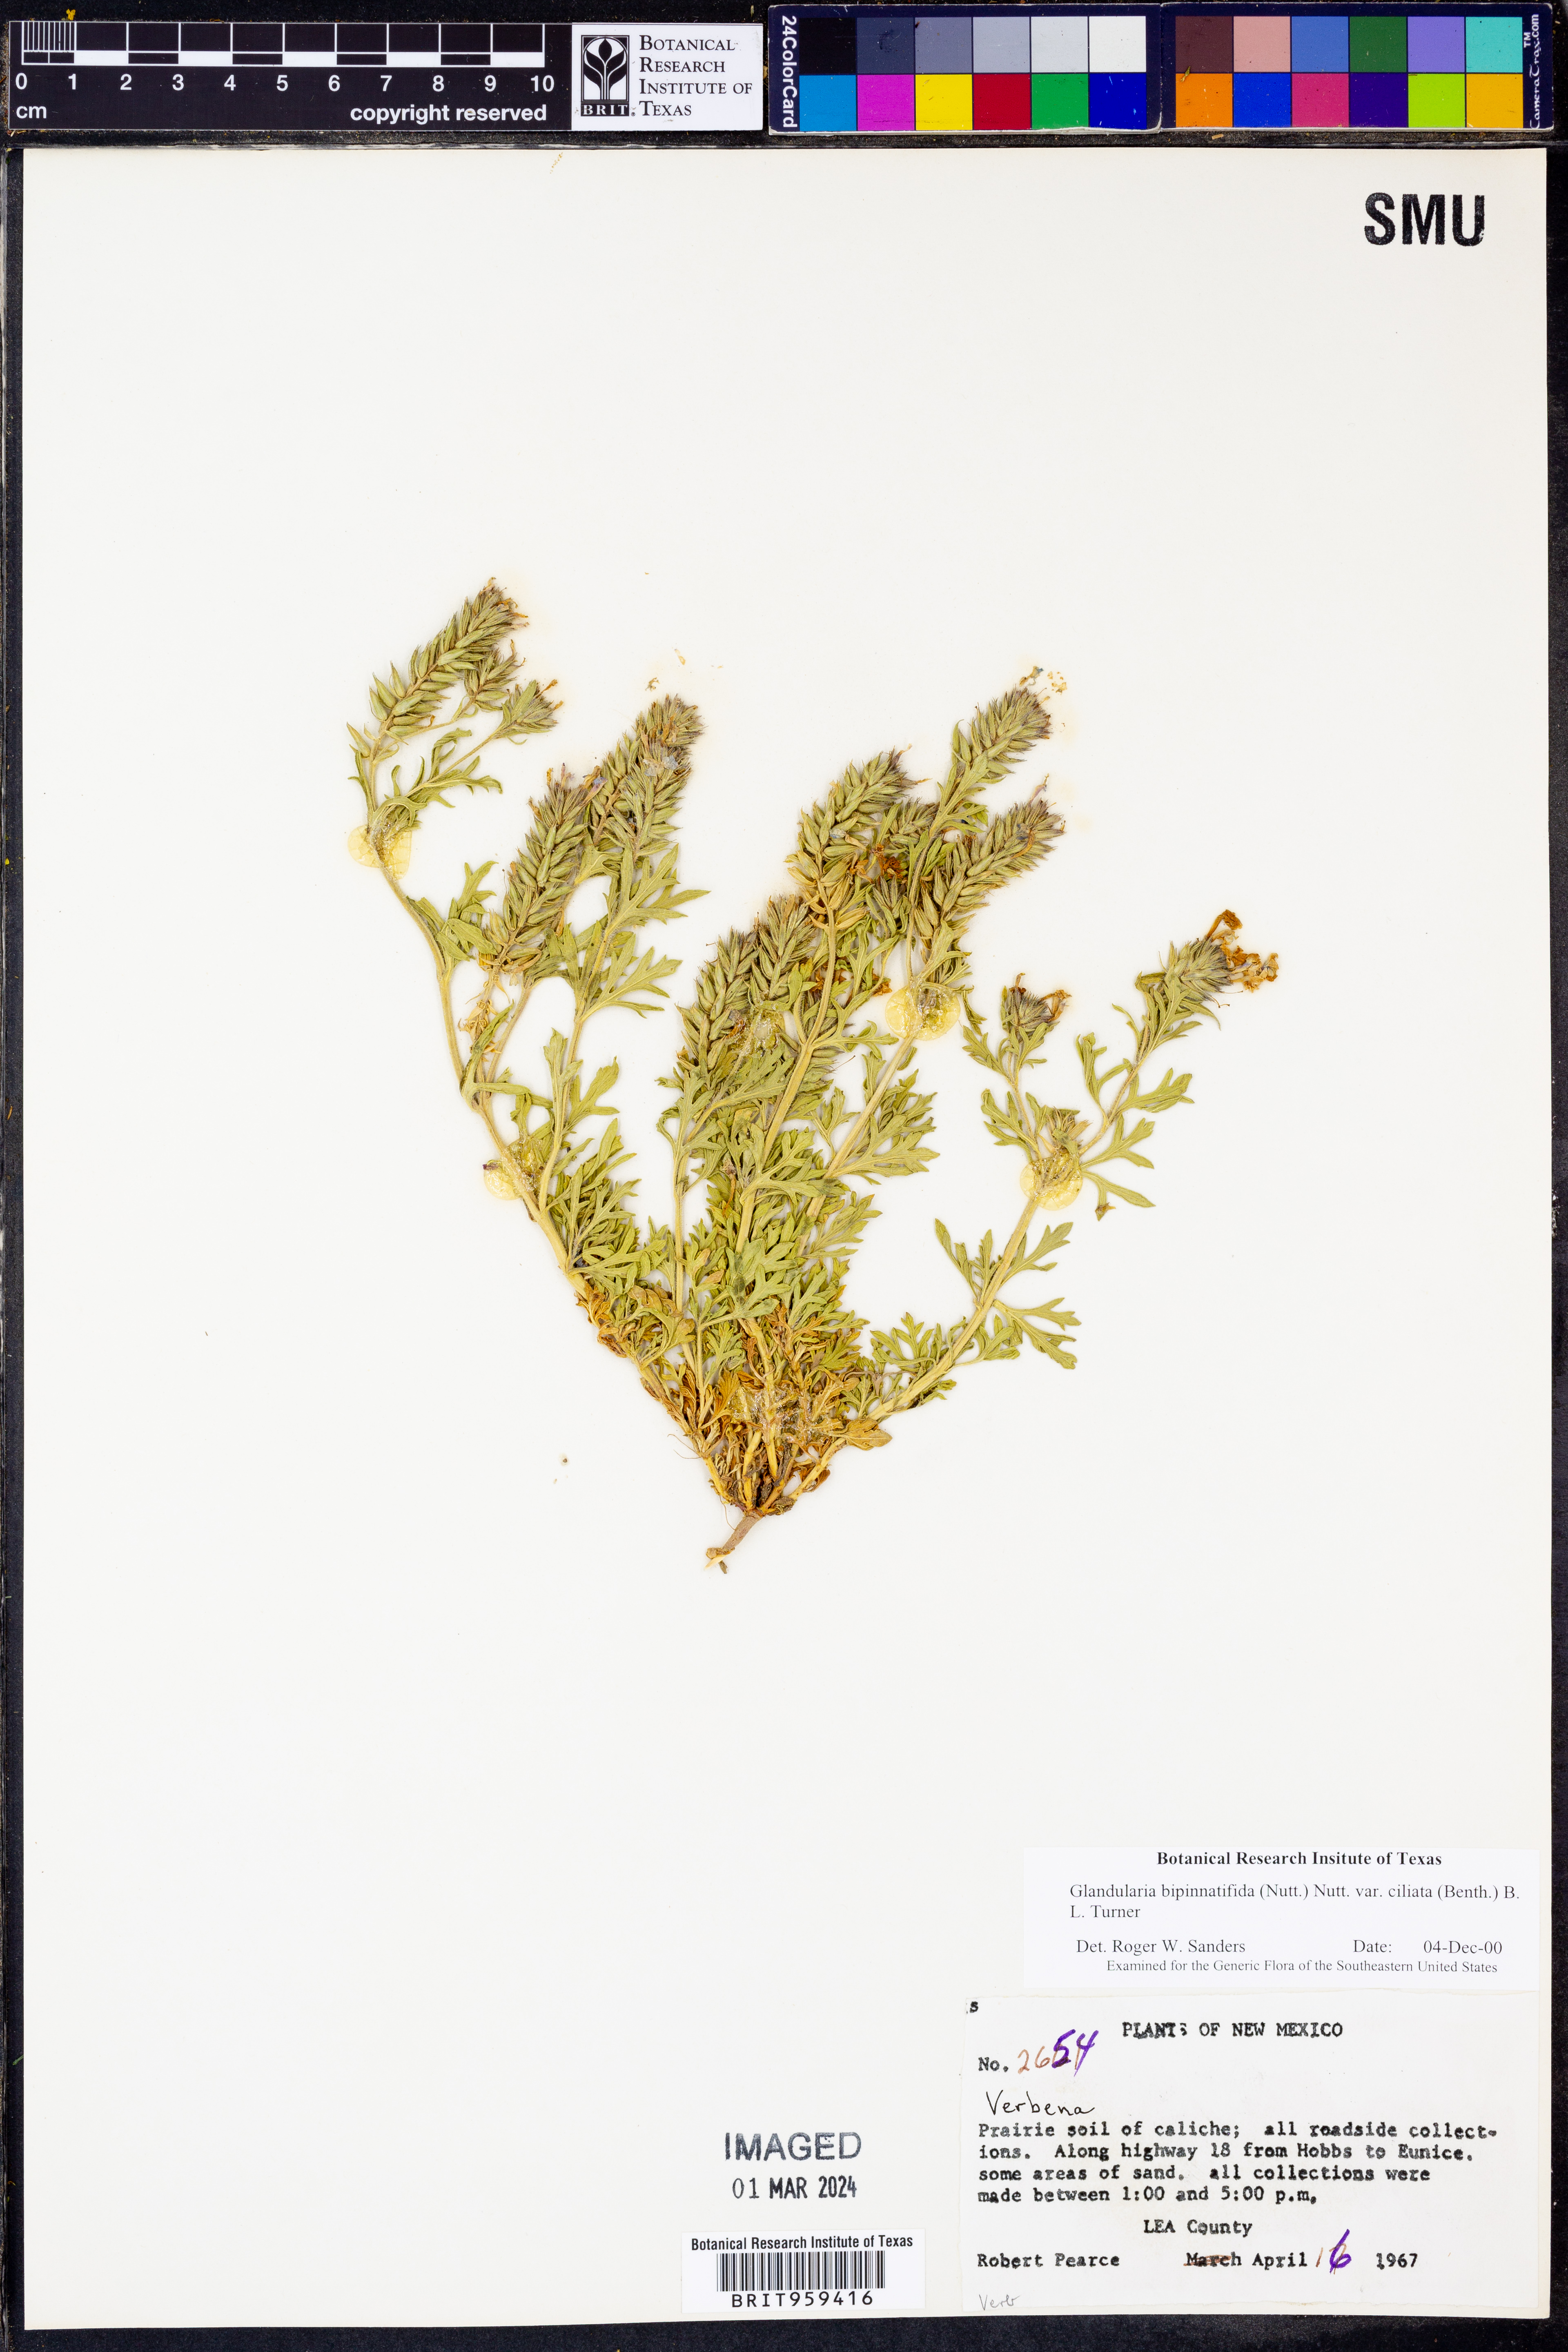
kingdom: Plantae
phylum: Tracheophyta
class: Magnoliopsida
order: Lamiales
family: Verbenaceae
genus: Verbena
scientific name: Verbena bipinnatifida
